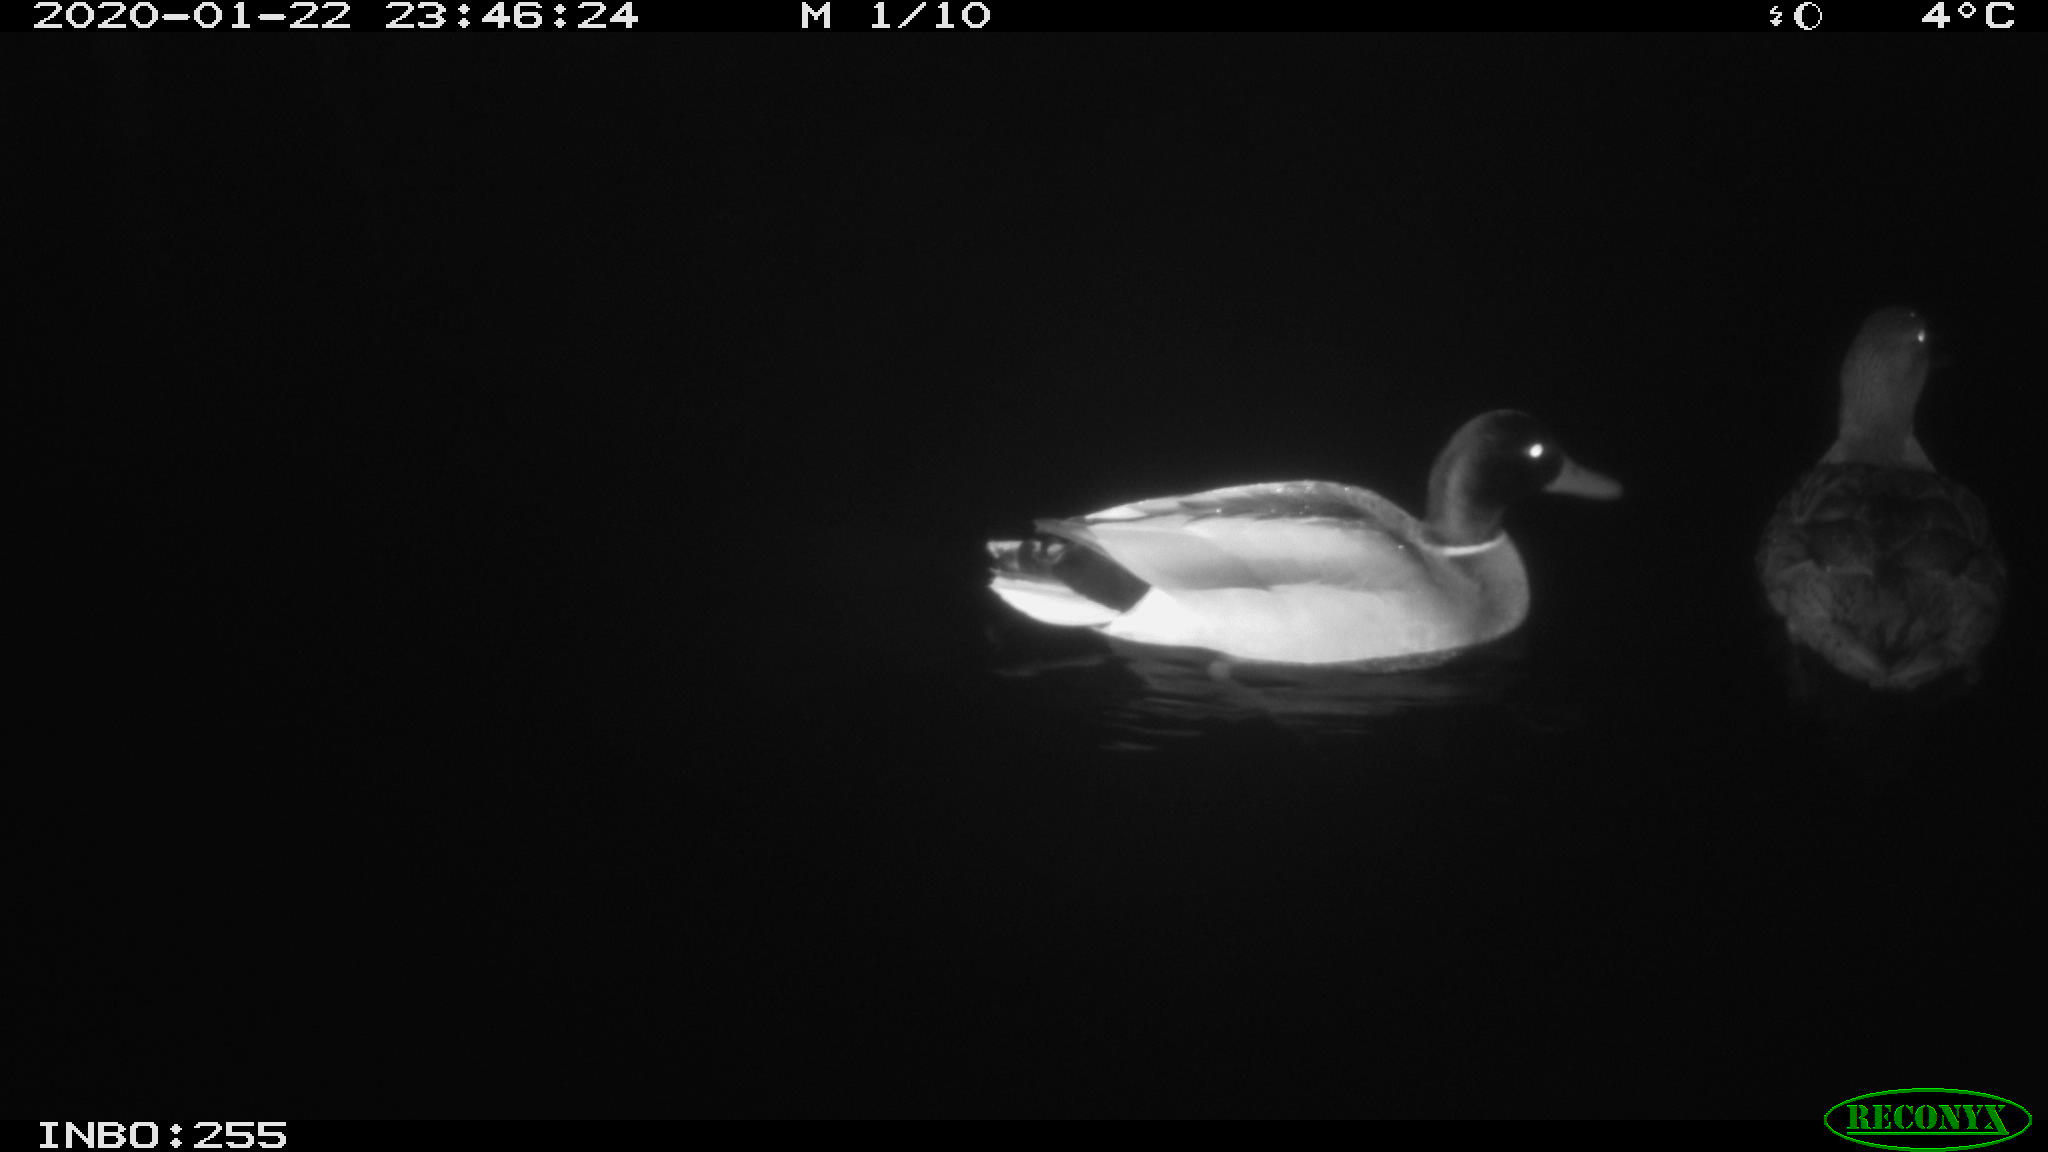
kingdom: Animalia
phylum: Chordata
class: Aves
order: Anseriformes
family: Anatidae
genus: Anas
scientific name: Anas platyrhynchos
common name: Mallard
